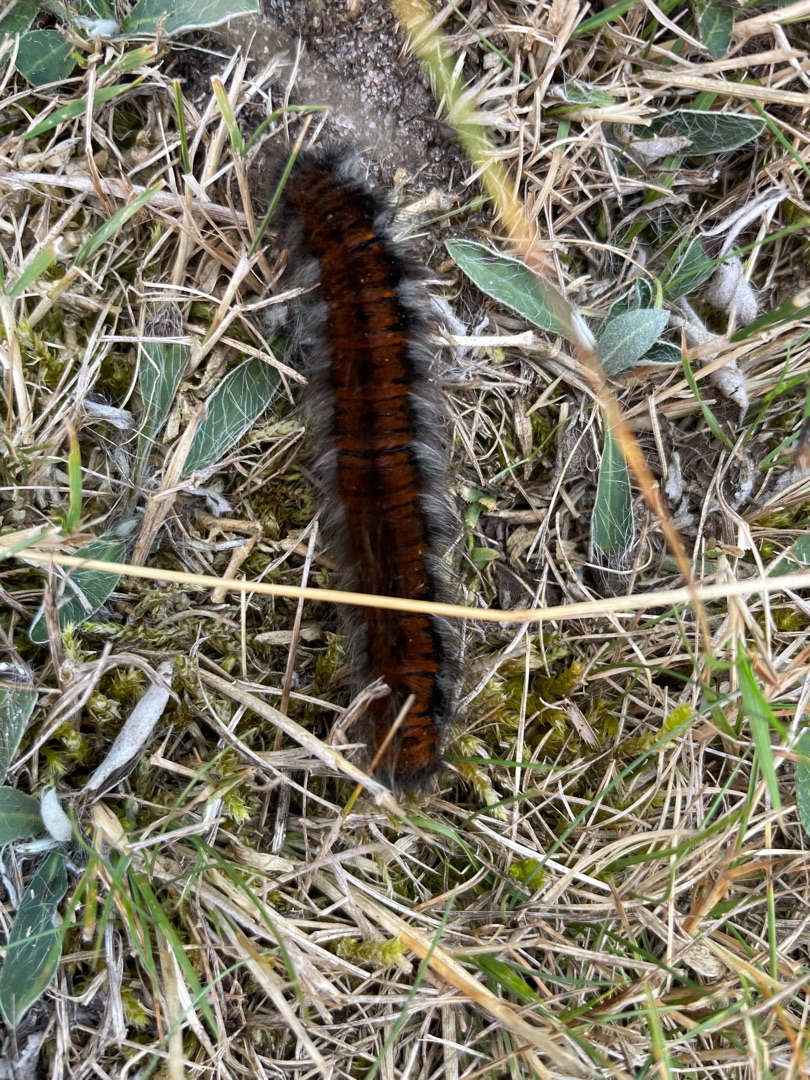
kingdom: Animalia
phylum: Arthropoda
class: Insecta
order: Lepidoptera
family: Lasiocampidae
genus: Macrothylacia
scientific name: Macrothylacia rubi
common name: Brombærspinder
